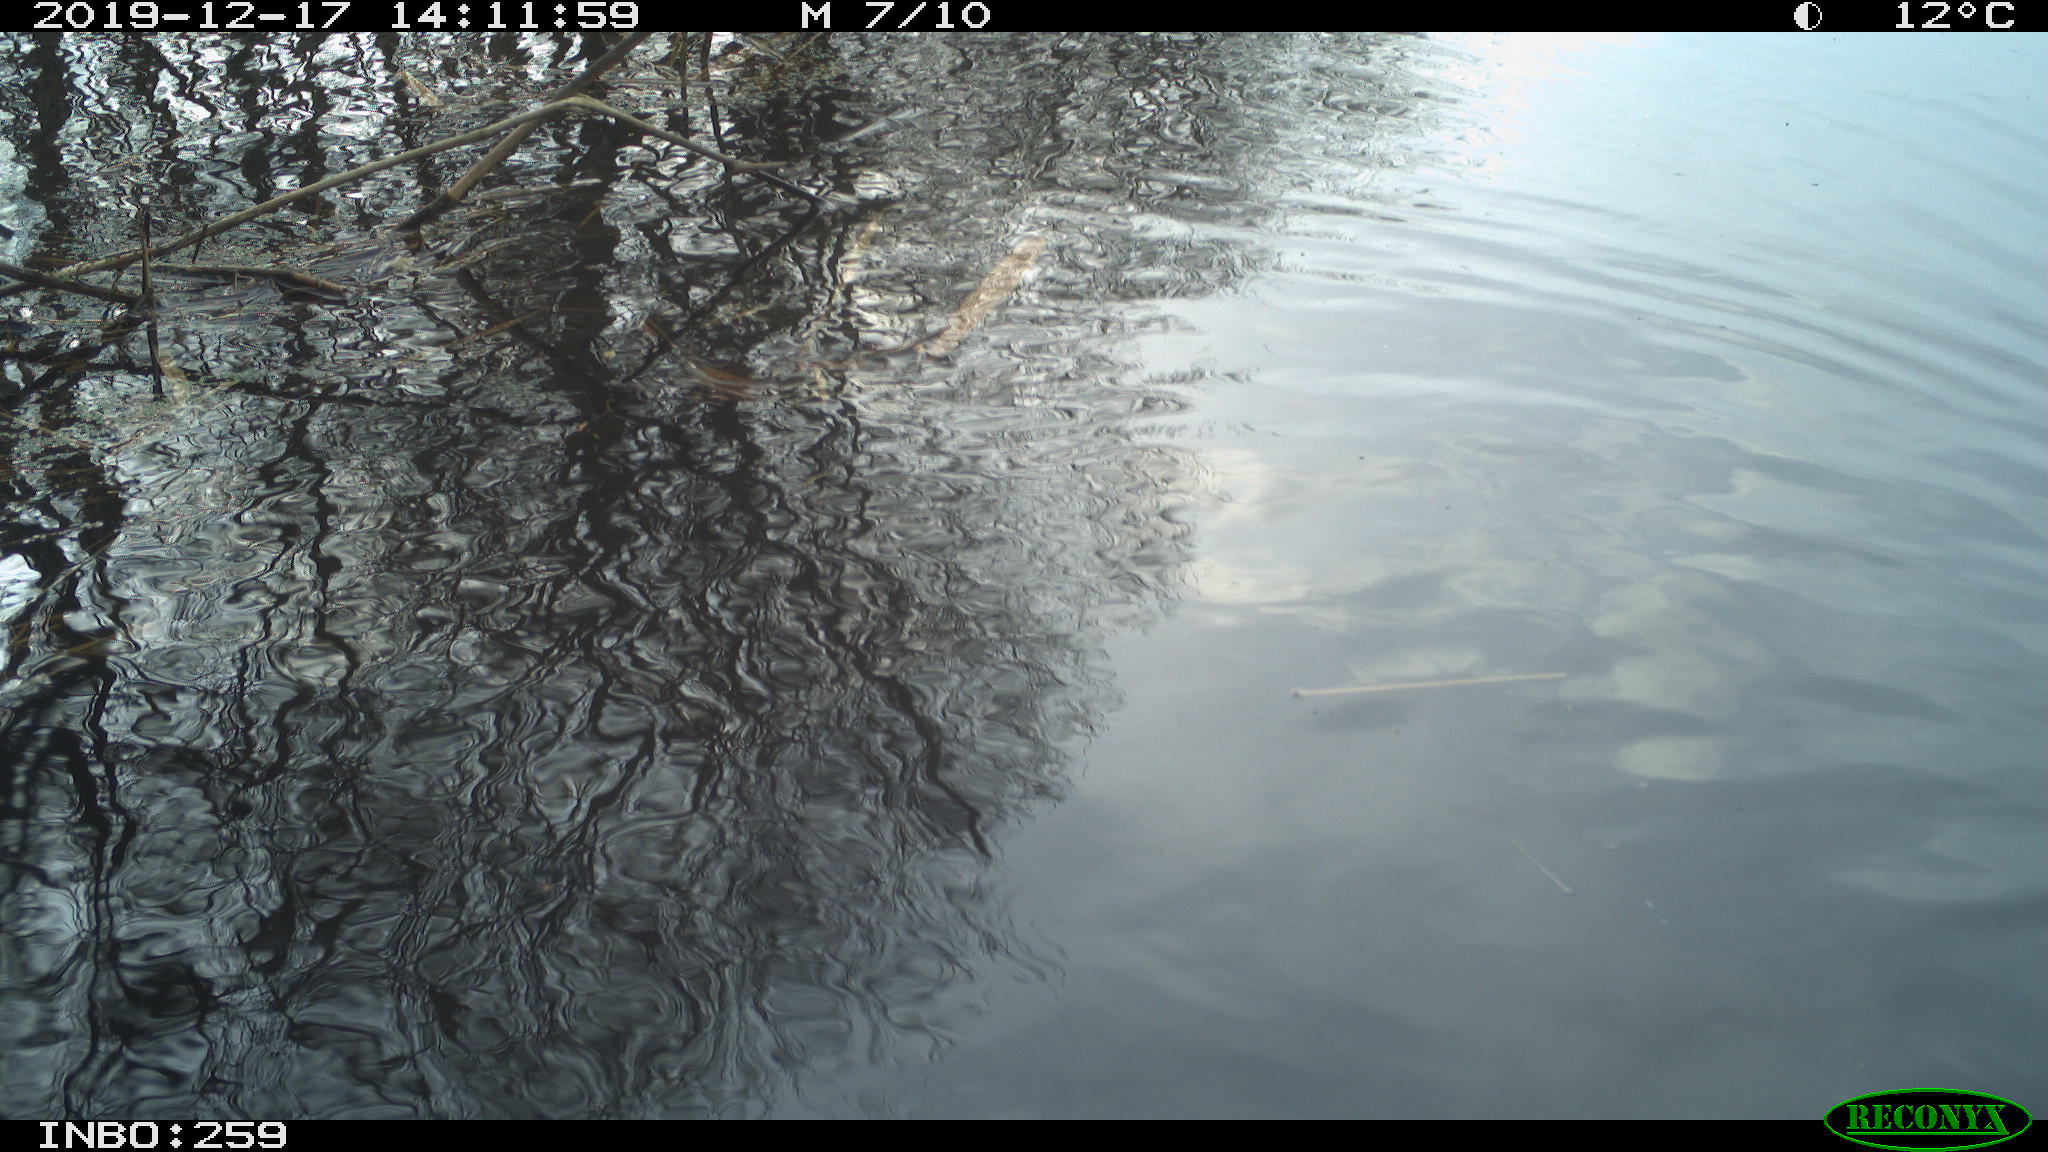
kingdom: Animalia
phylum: Chordata
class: Aves
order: Gruiformes
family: Rallidae
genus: Gallinula
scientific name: Gallinula chloropus
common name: Common moorhen
